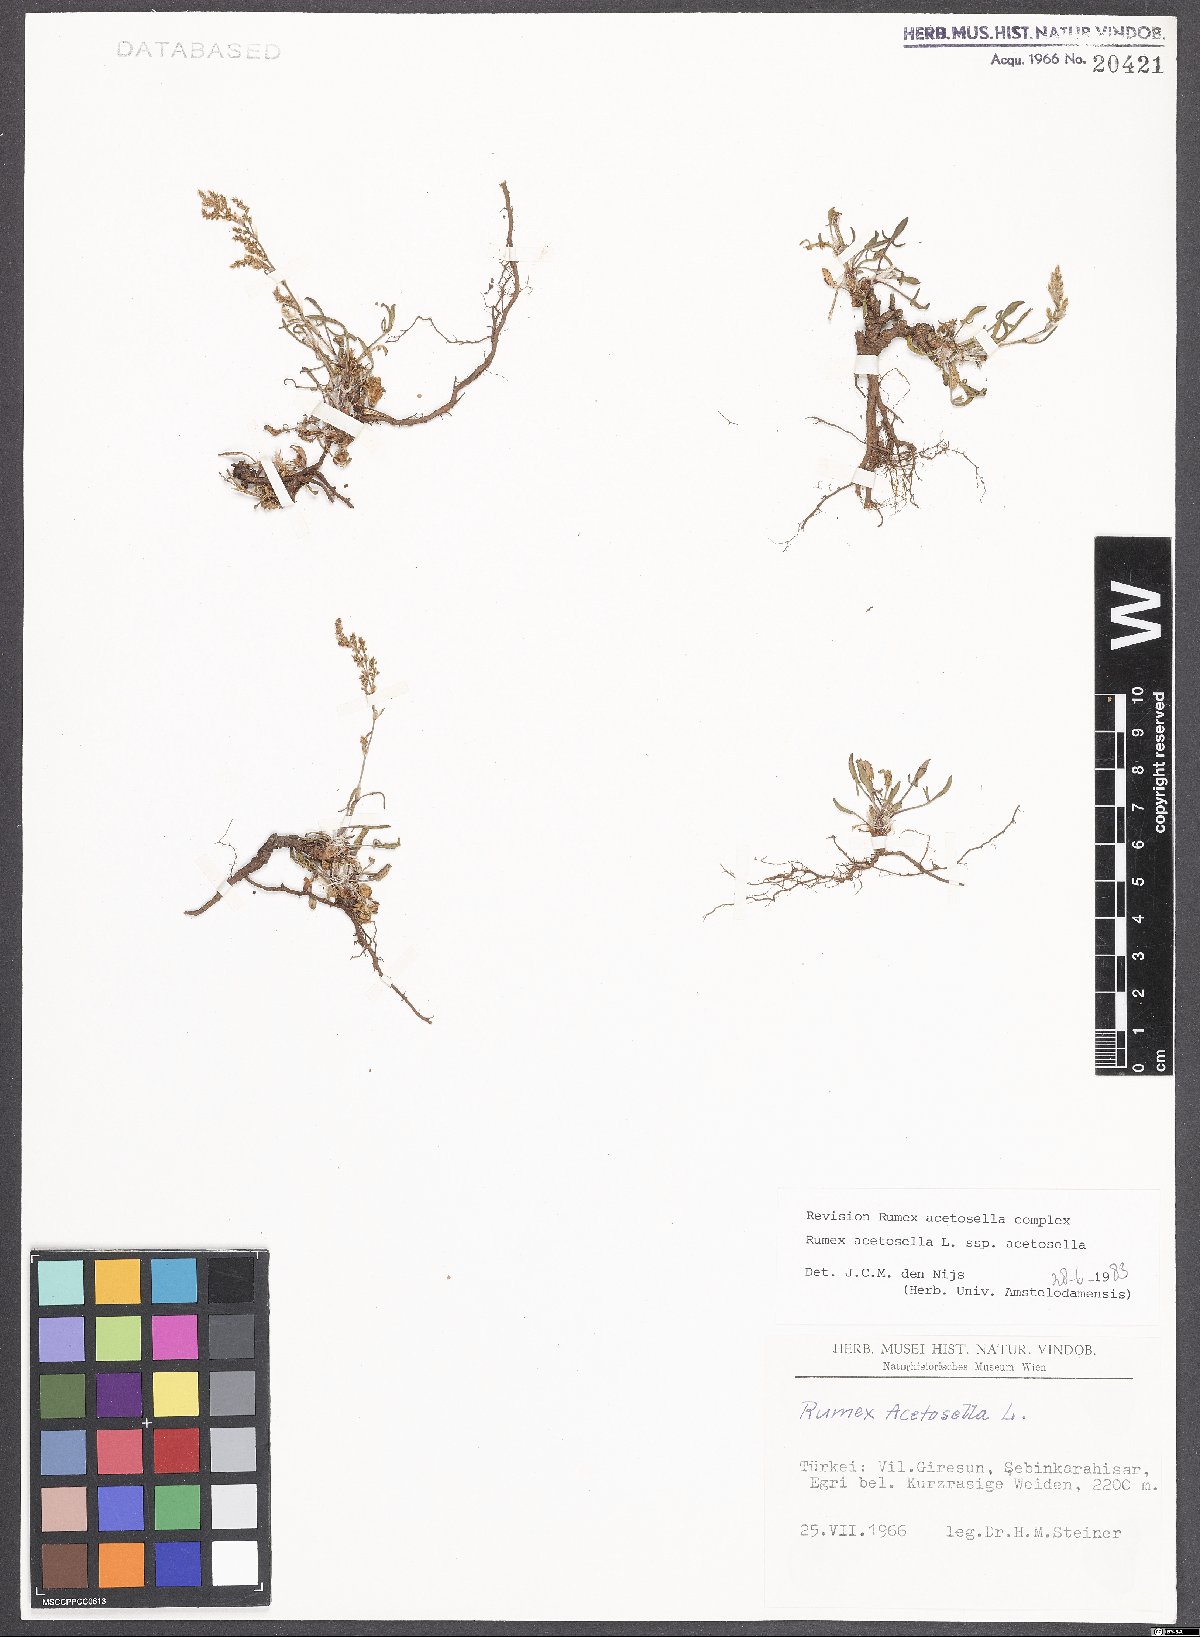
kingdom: Plantae
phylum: Tracheophyta
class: Magnoliopsida
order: Caryophyllales
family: Polygonaceae
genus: Rumex
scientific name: Rumex acetosella
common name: Common sheep sorrel
